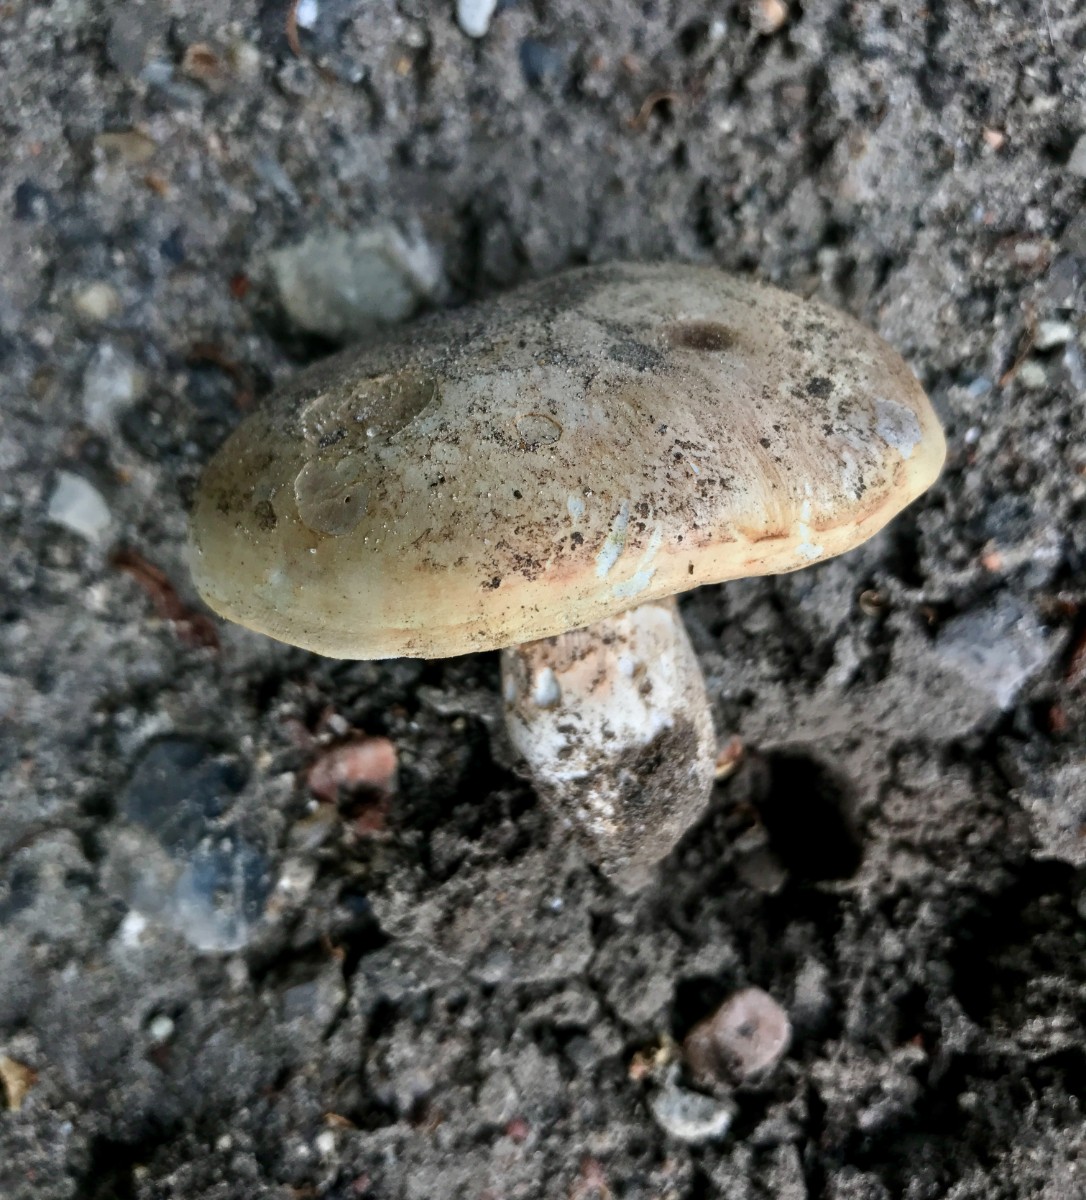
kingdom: Fungi
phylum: Basidiomycota
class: Agaricomycetes
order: Agaricales
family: Agaricaceae
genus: Agaricus
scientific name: Agaricus bitorquis
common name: vej-champignon
